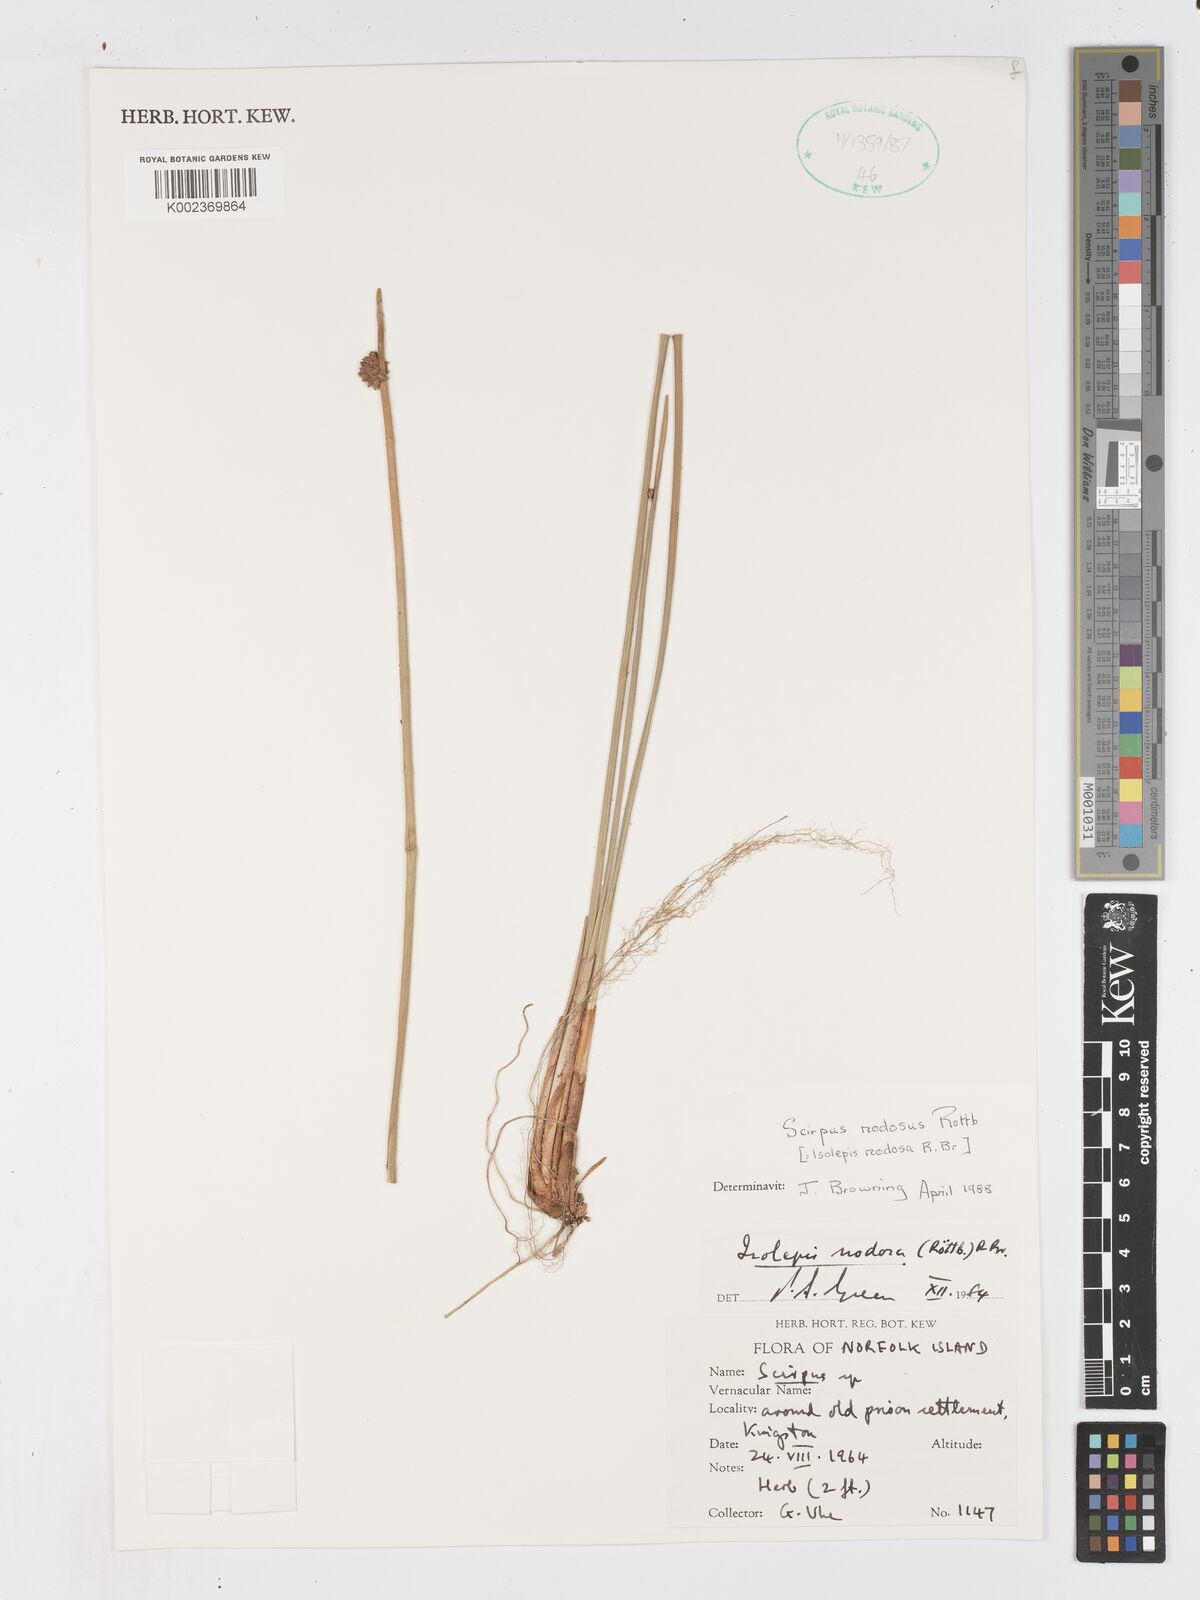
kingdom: Plantae
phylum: Tracheophyta
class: Liliopsida
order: Poales
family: Cyperaceae
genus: Ficinia
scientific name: Ficinia nodosa
